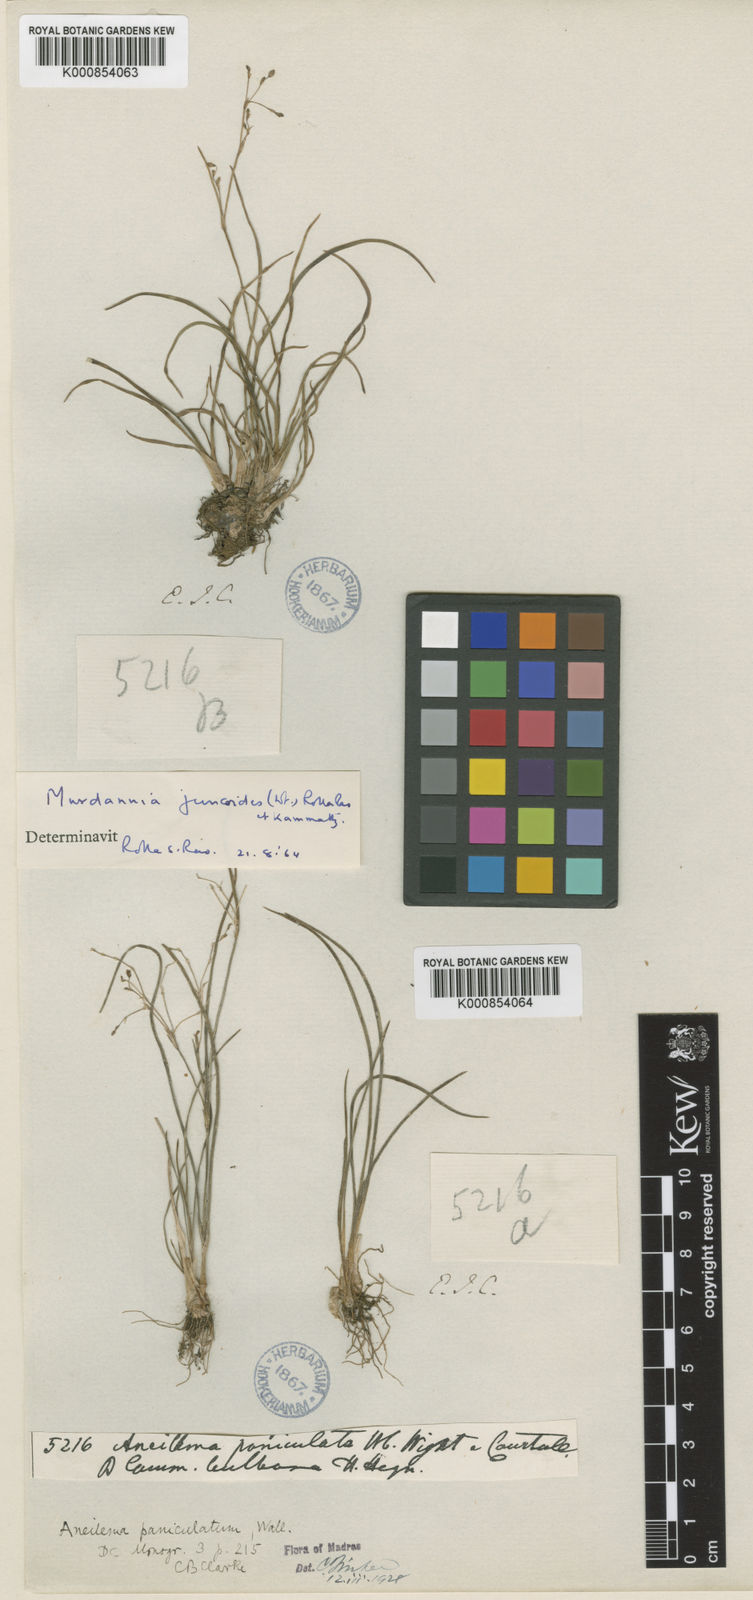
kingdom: Plantae
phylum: Tracheophyta
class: Liliopsida
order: Commelinales
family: Commelinaceae
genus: Murdannia
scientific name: Murdannia semiteres
